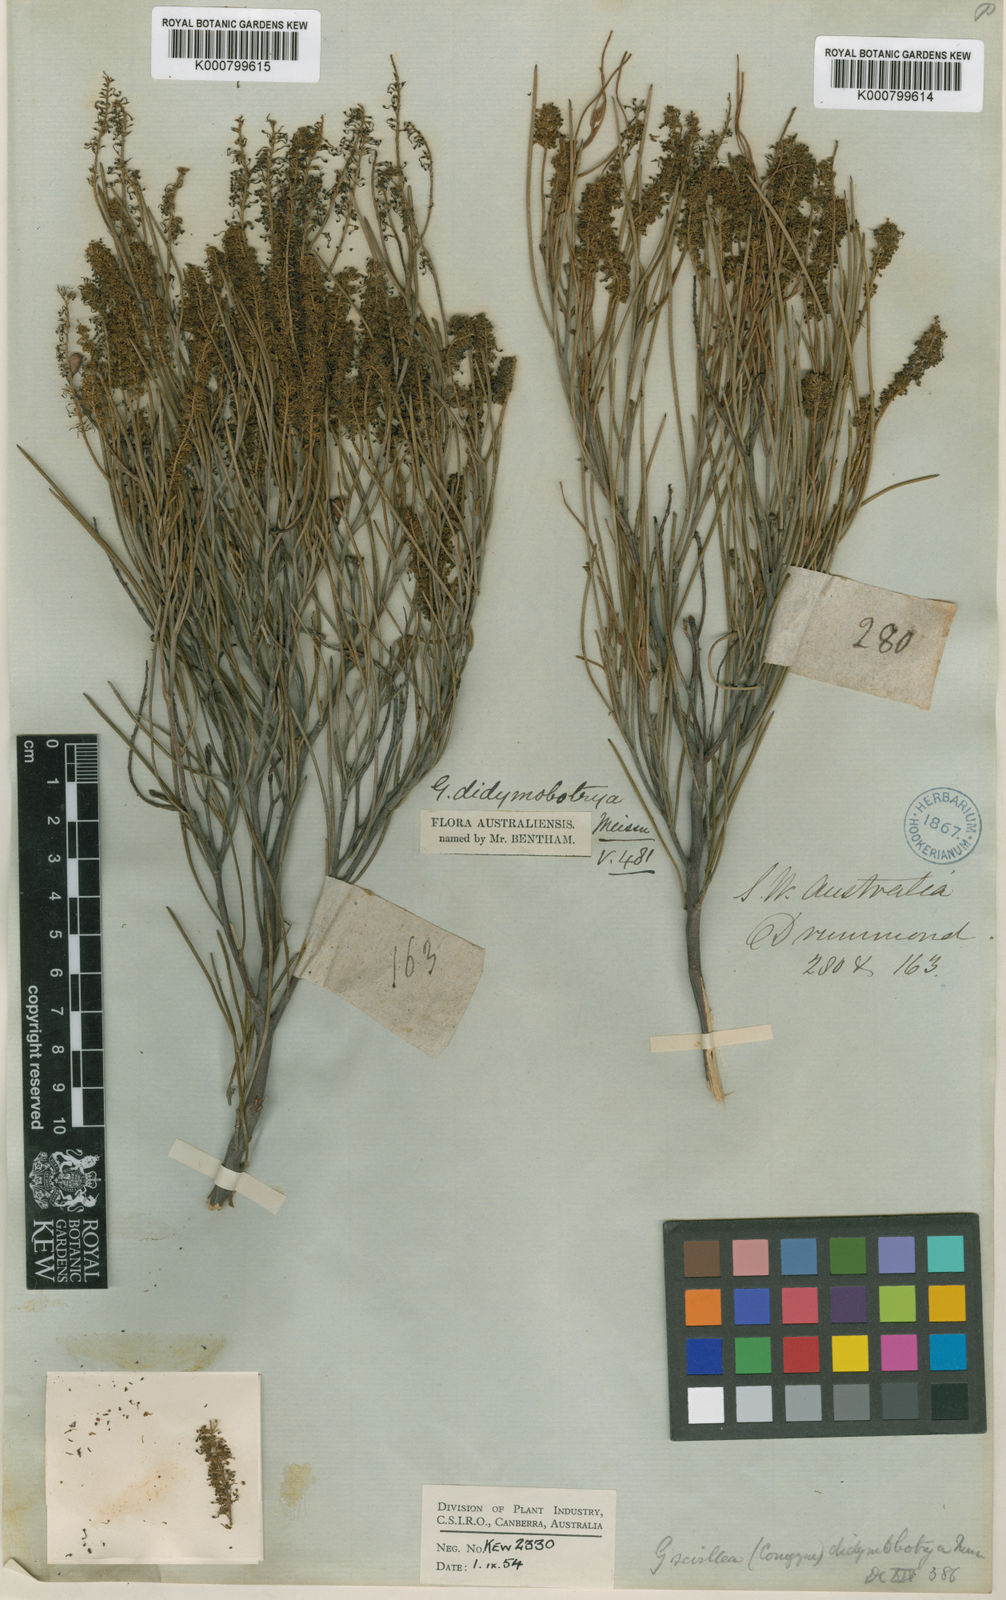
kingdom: Plantae
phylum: Tracheophyta
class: Magnoliopsida
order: Proteales
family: Proteaceae
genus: Grevillea
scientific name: Grevillea didymobotrya
